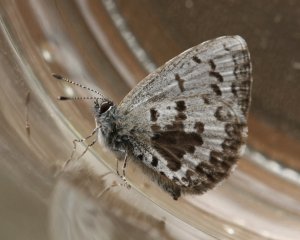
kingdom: Animalia
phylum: Arthropoda
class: Insecta
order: Lepidoptera
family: Lycaenidae
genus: Celastrina
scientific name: Celastrina lucia
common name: Northern Spring Azure
